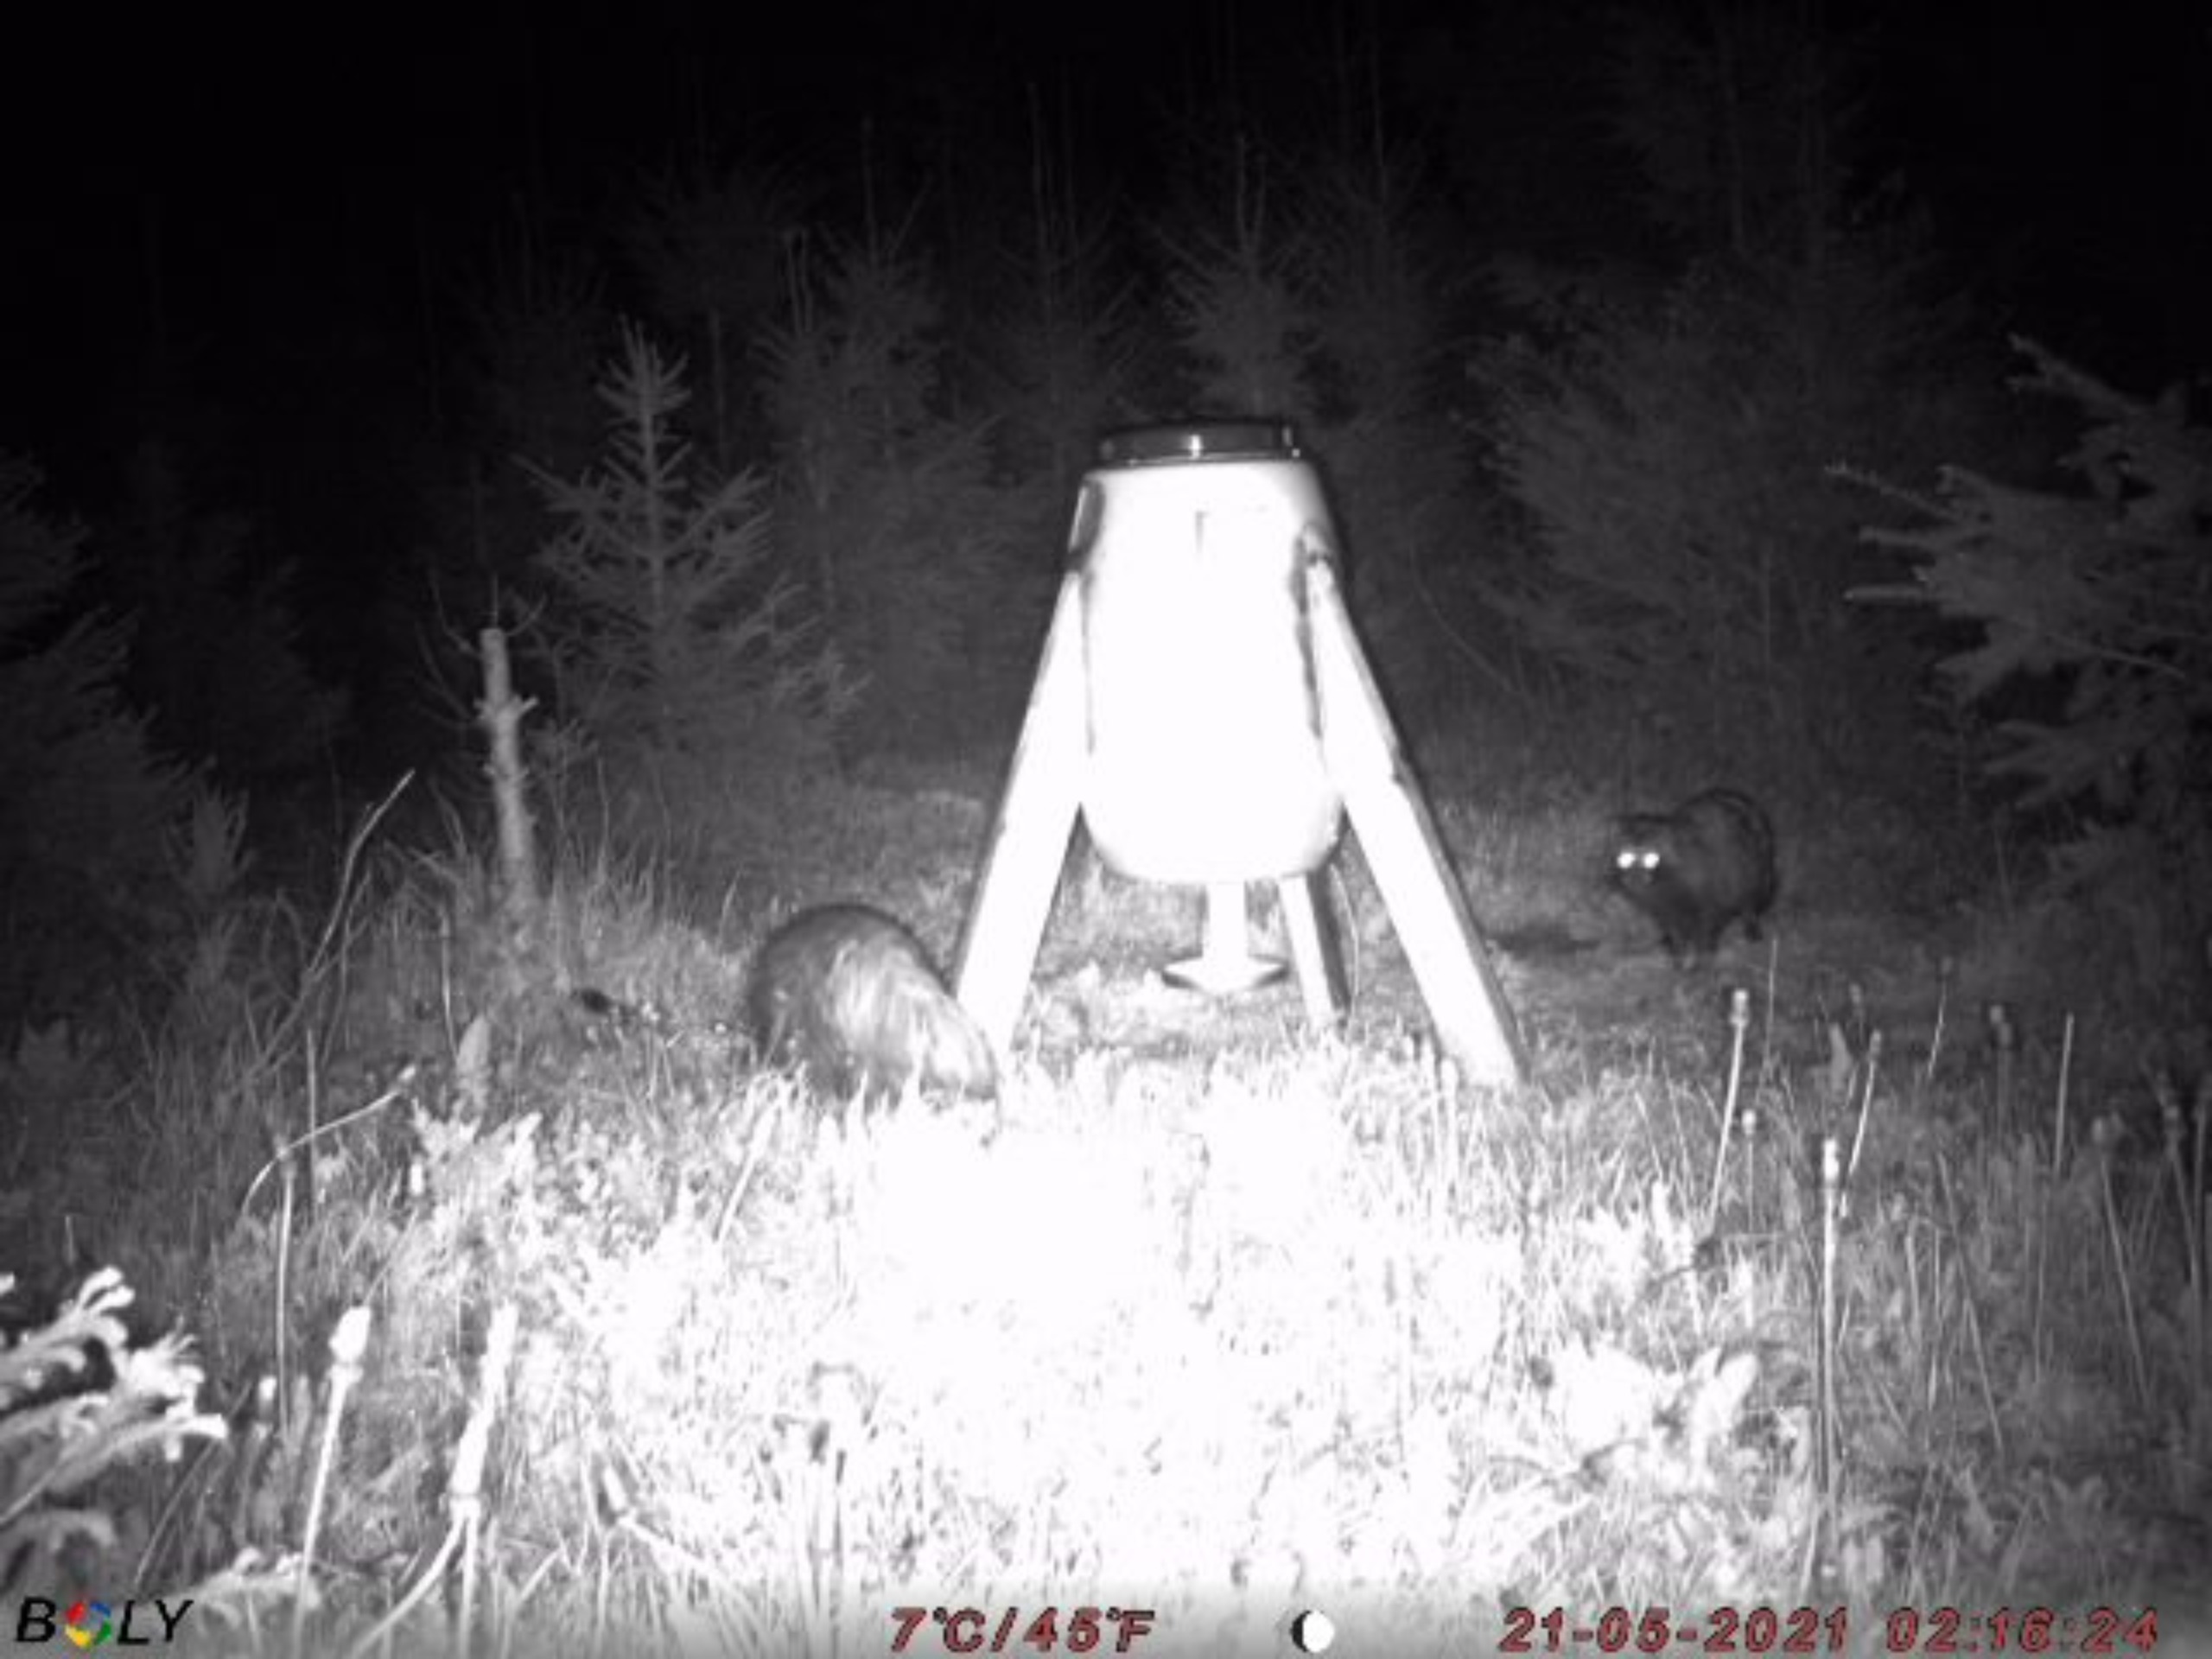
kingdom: Animalia
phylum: Chordata
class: Mammalia
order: Carnivora
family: Canidae
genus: Nyctereutes
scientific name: Nyctereutes procyonoides
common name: Mårhund
